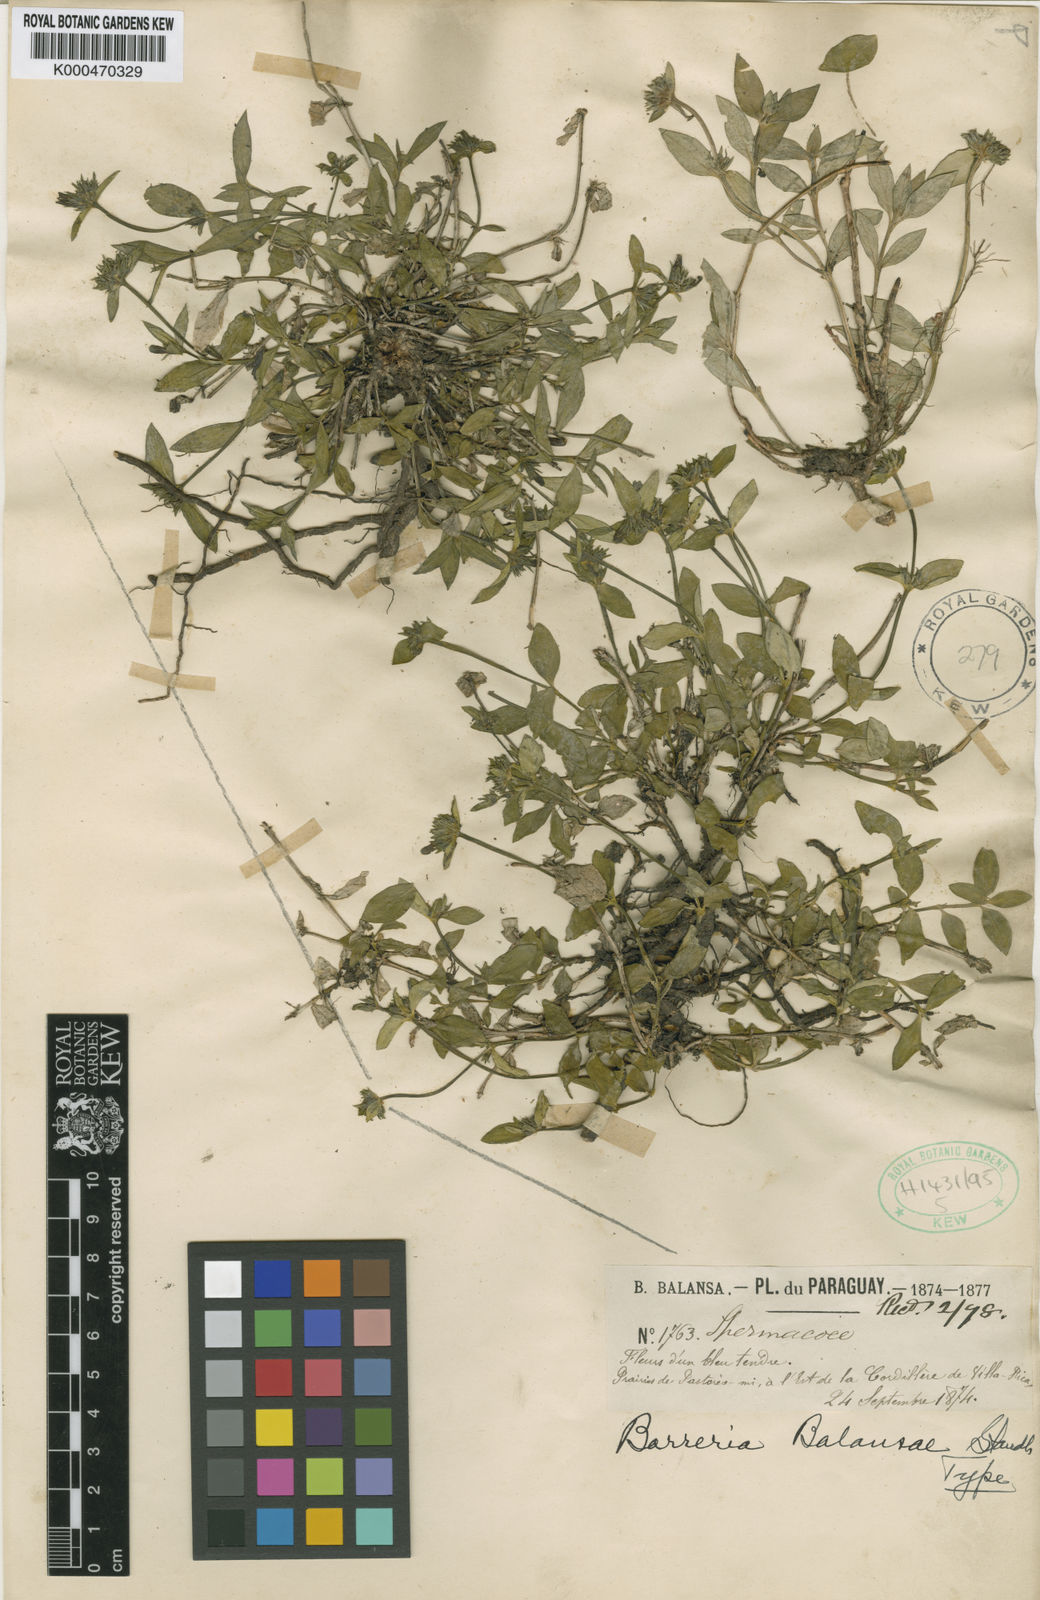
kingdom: Plantae
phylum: Tracheophyta
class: Magnoliopsida
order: Gentianales
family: Rubiaceae
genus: Spermacoce
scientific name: Spermacoce poaya
